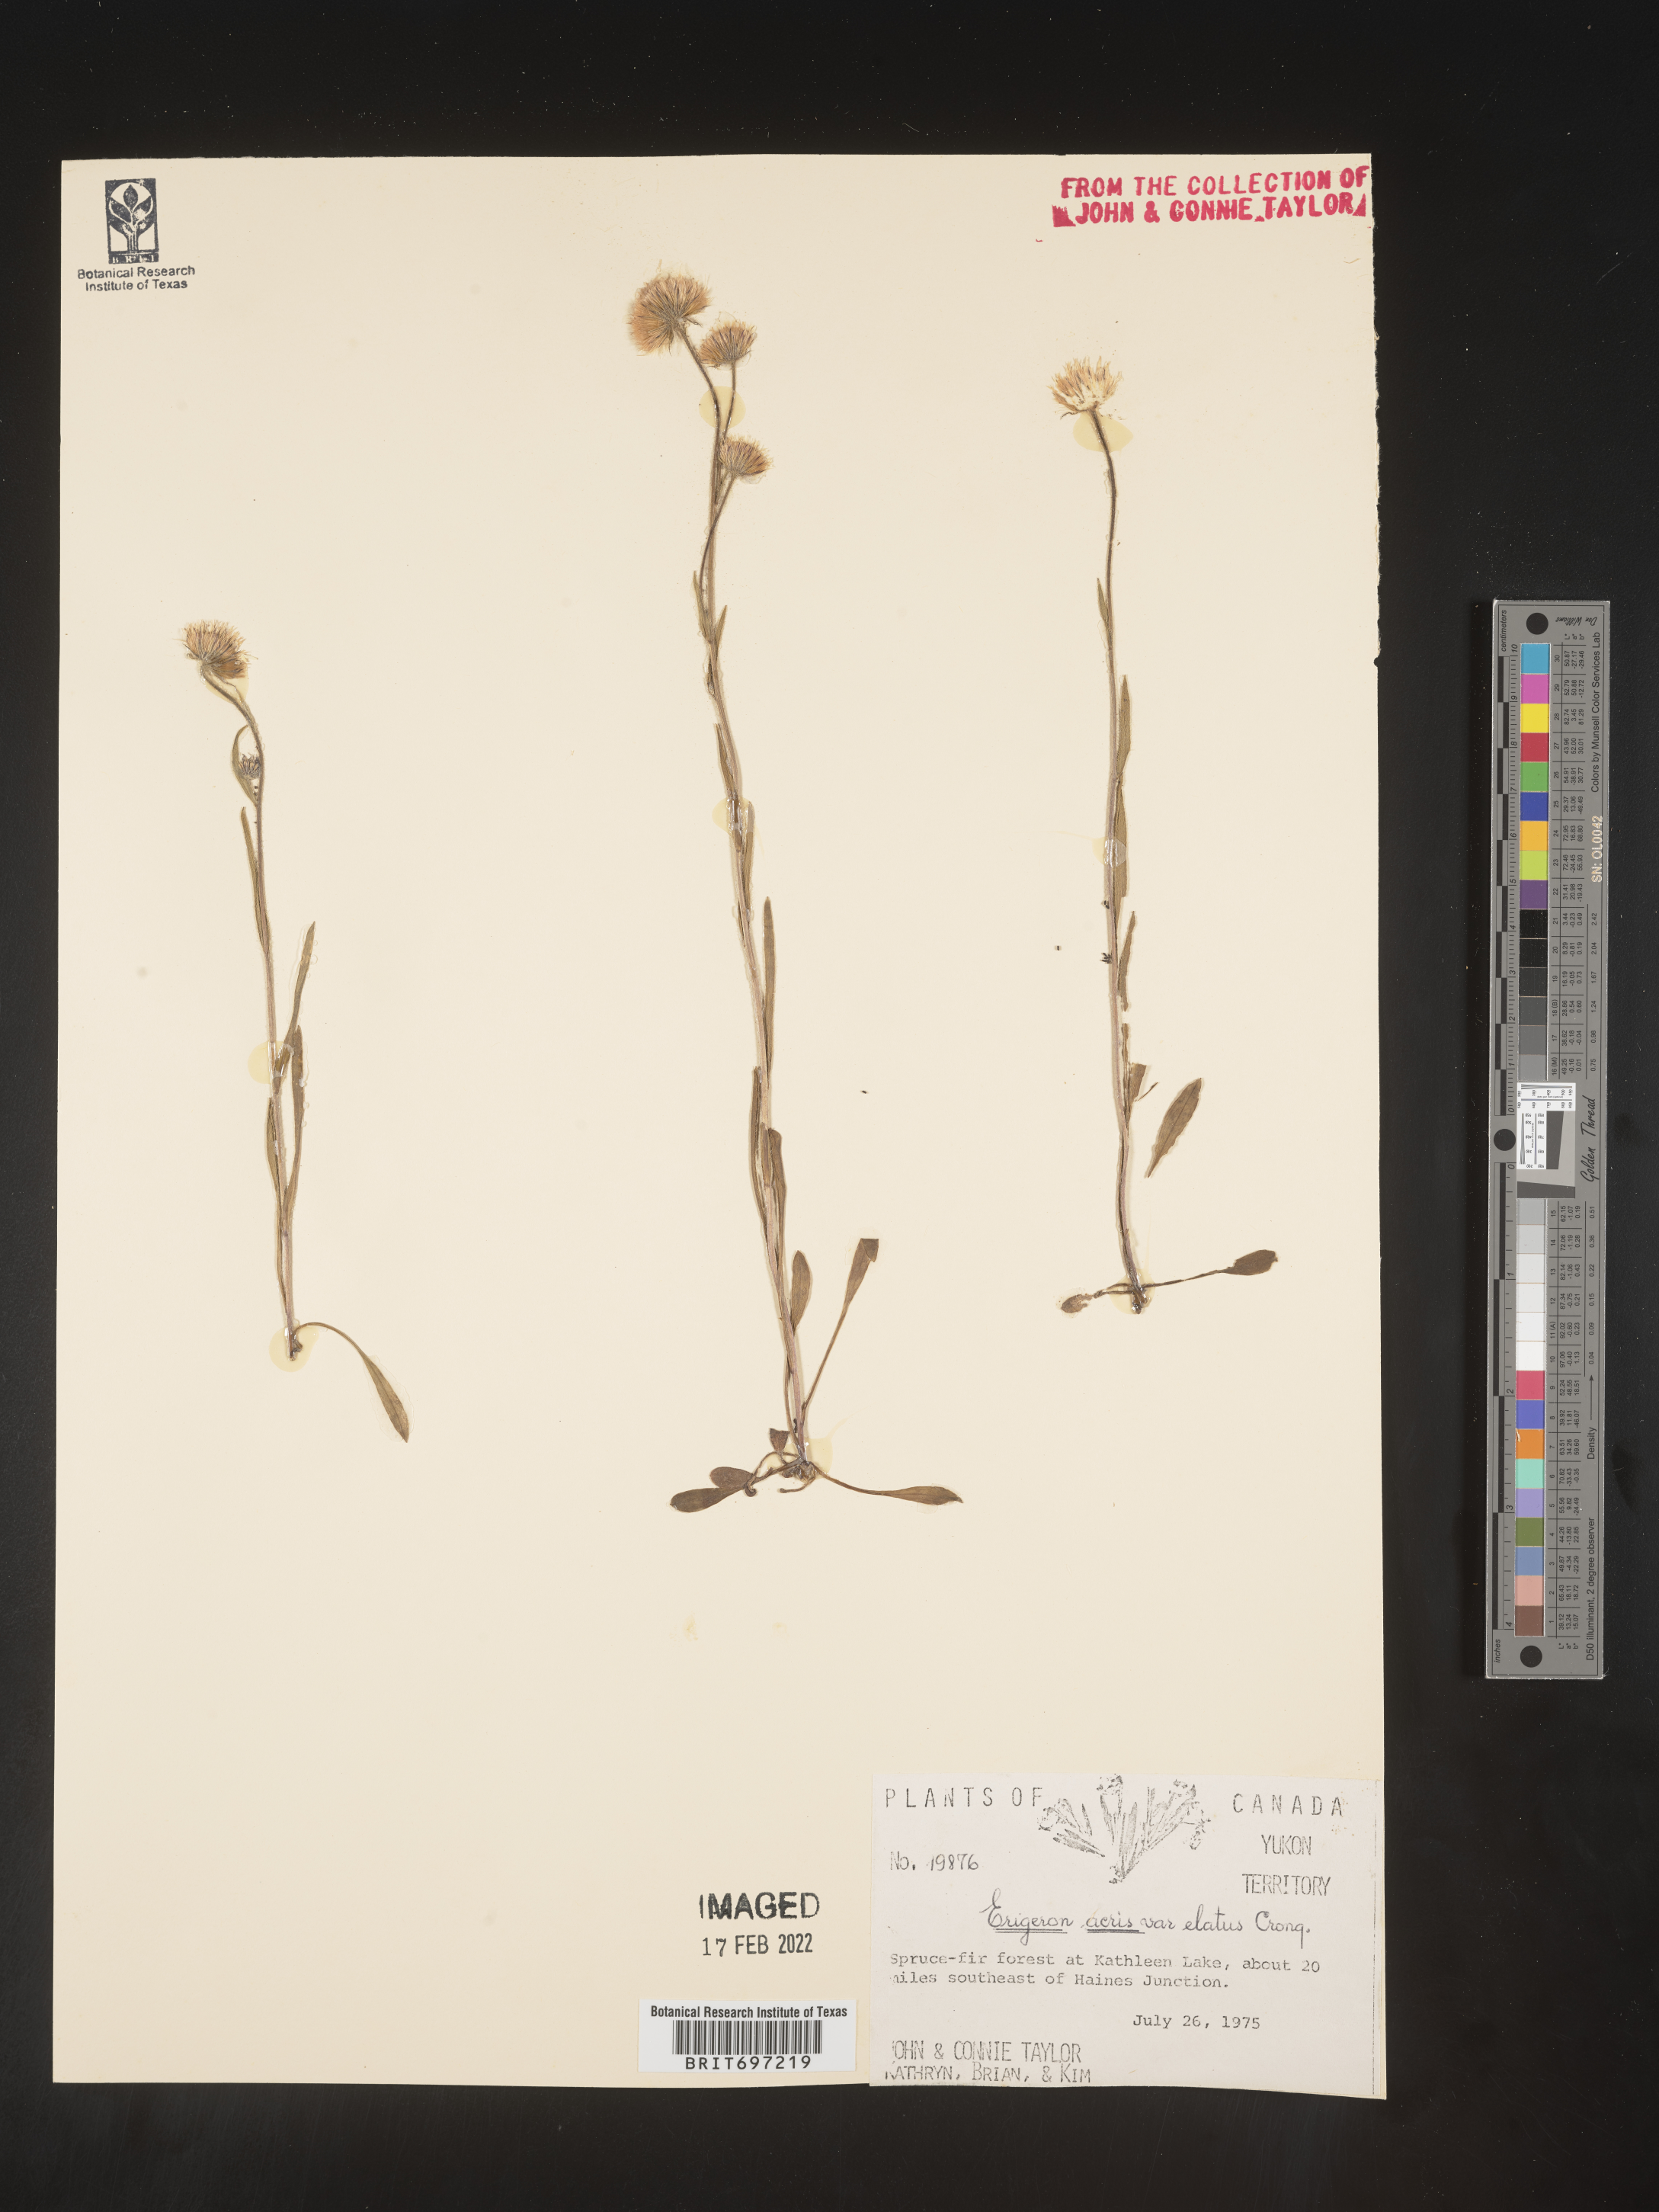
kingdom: Plantae
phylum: Tracheophyta
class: Magnoliopsida
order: Asterales
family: Asteraceae
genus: Erigeron
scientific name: Erigeron elatus
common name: Swamp fleabane
